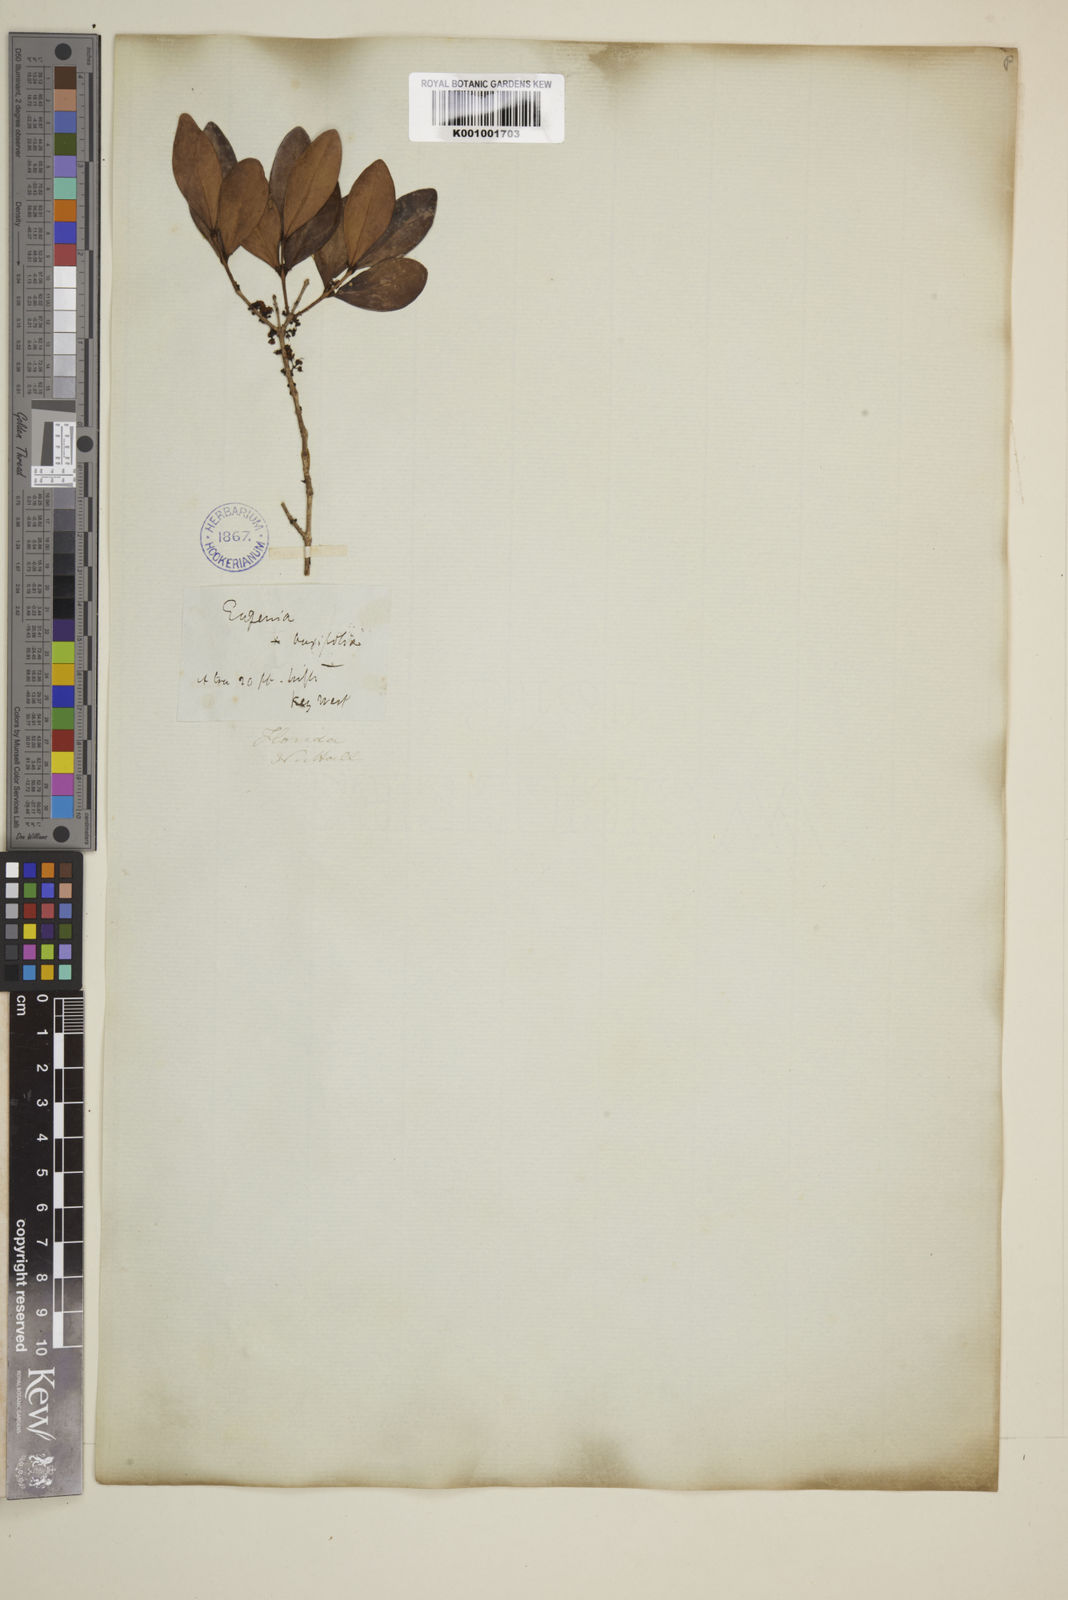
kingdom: Plantae
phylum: Tracheophyta
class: Magnoliopsida
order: Myrtales
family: Myrtaceae
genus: Eugenia
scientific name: Eugenia buxifolia
